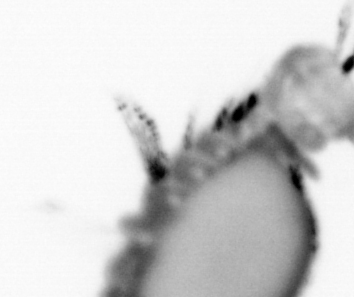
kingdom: Animalia
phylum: Annelida
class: Polychaeta
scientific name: Polychaeta
